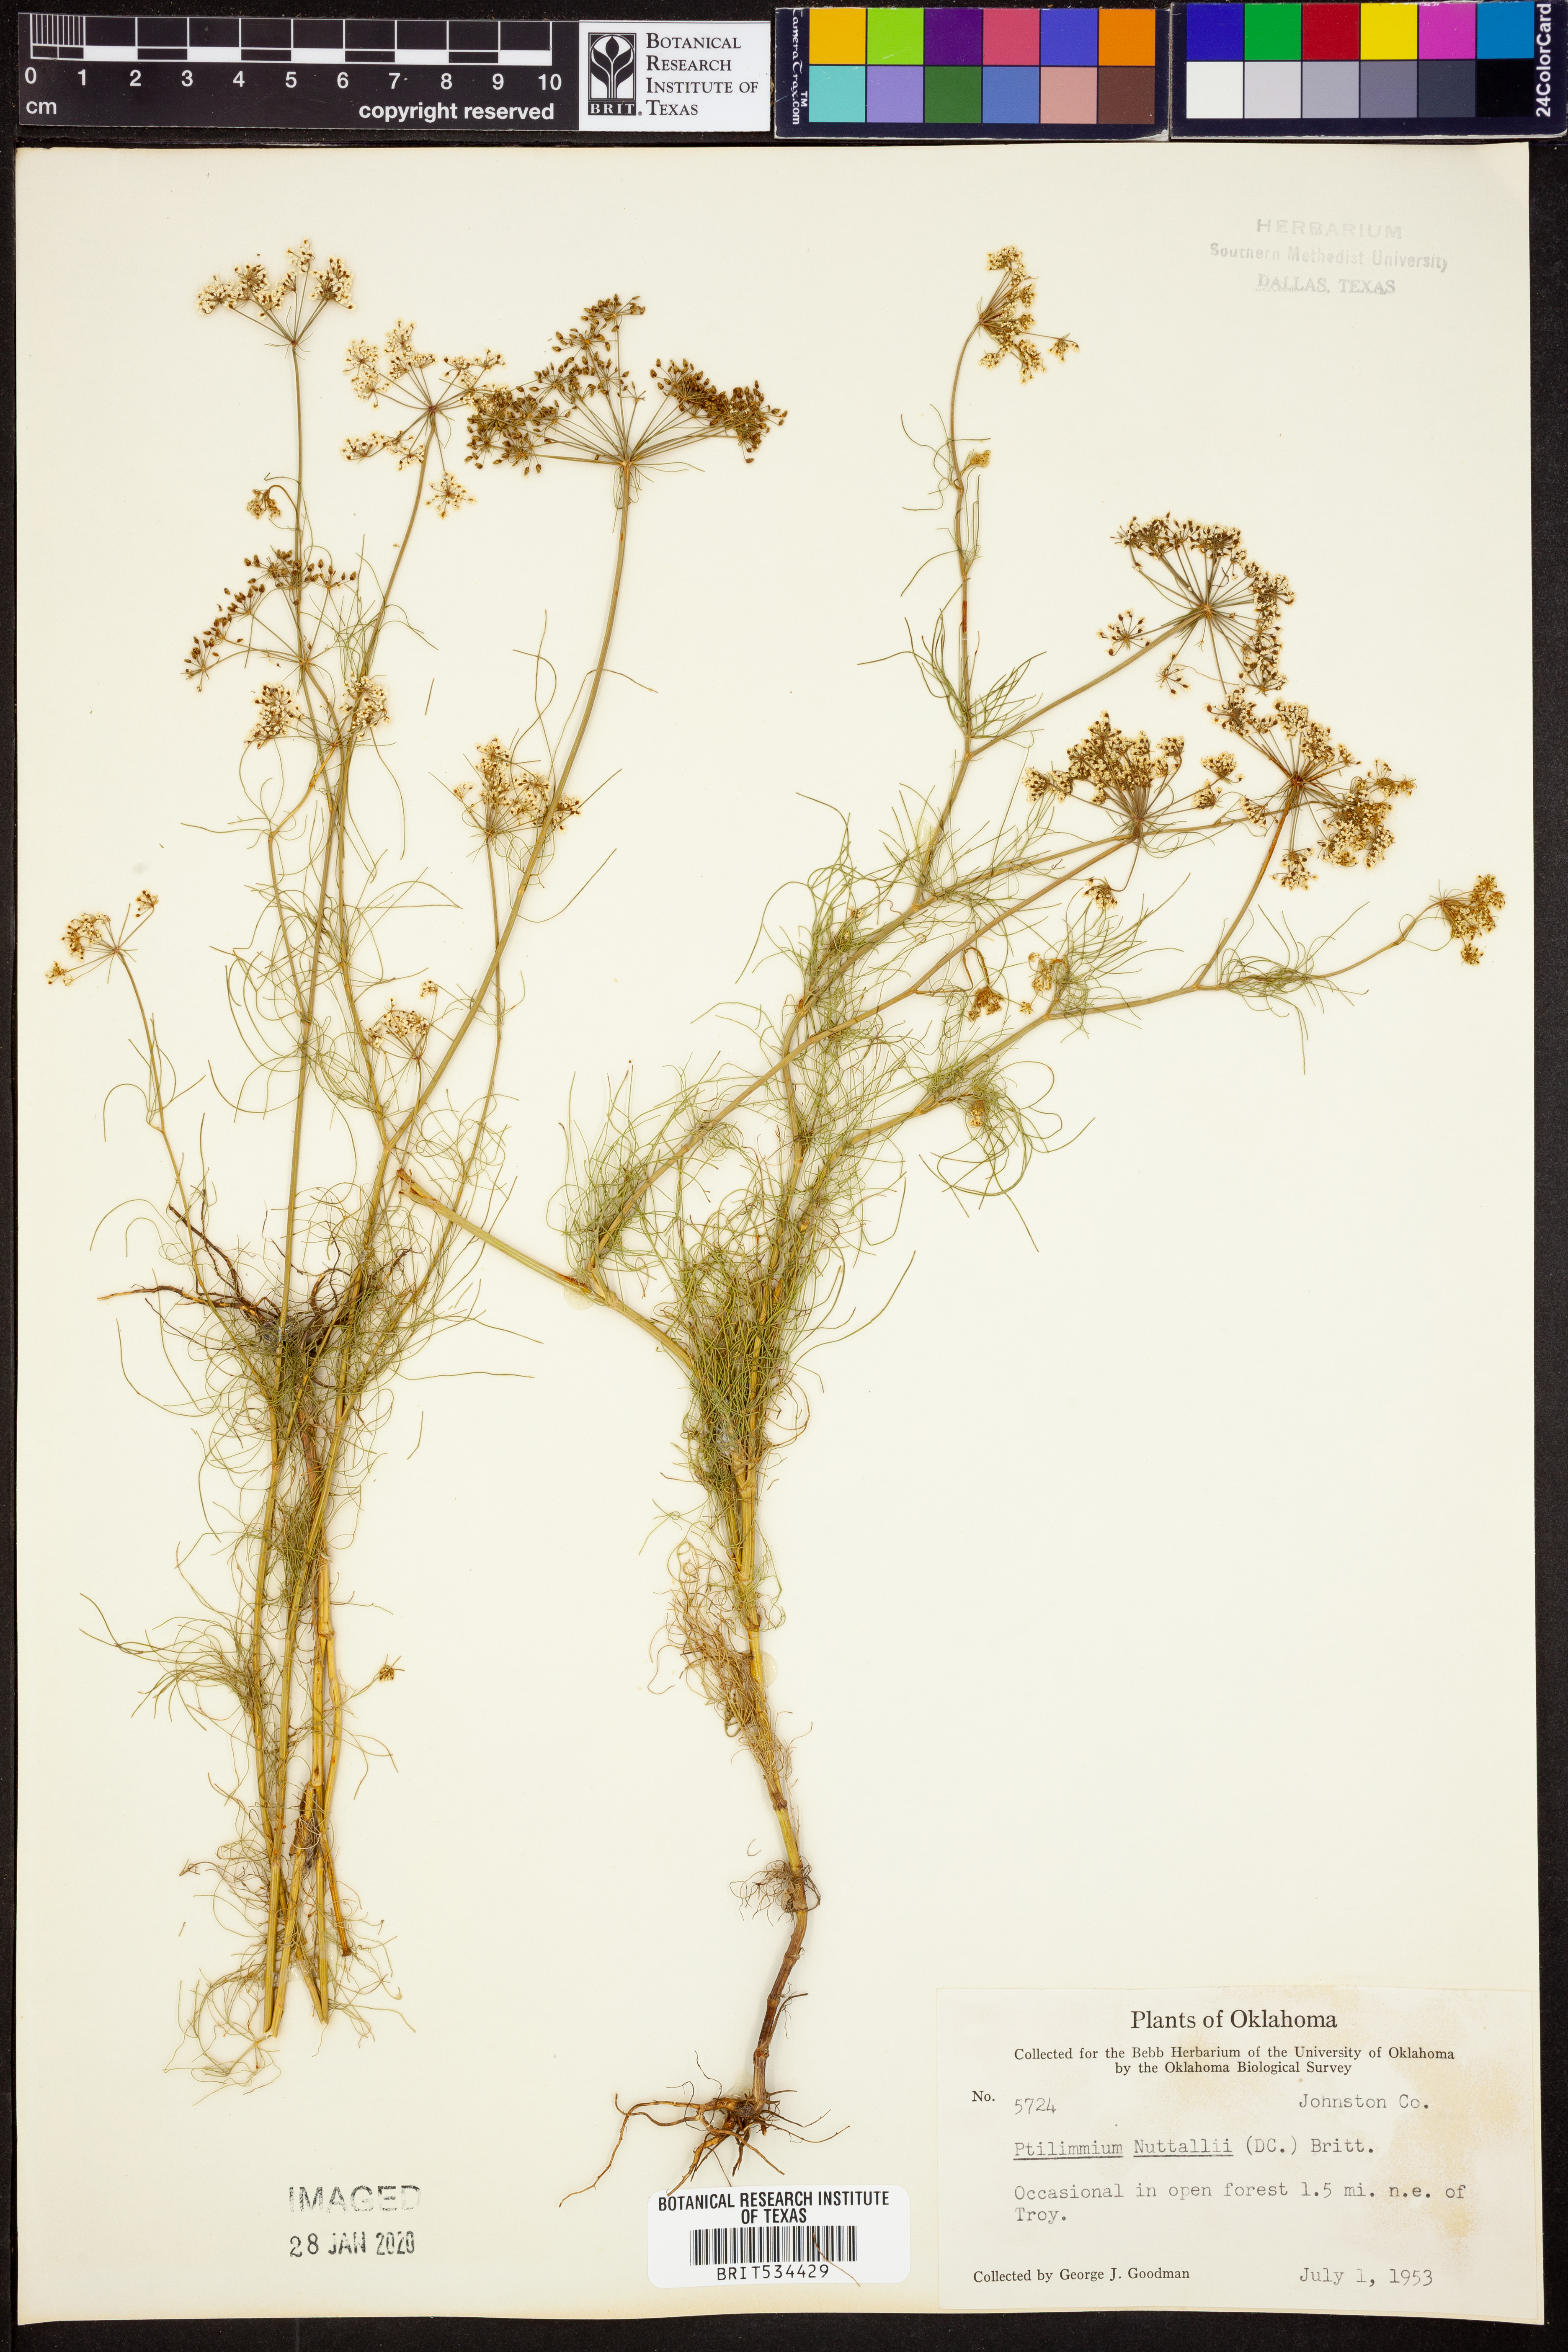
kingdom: Plantae
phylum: Tracheophyta
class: Magnoliopsida
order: Apiales
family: Apiaceae
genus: Ptilimnium
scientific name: Ptilimnium nuttallii
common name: Ozark bishop's-weed
